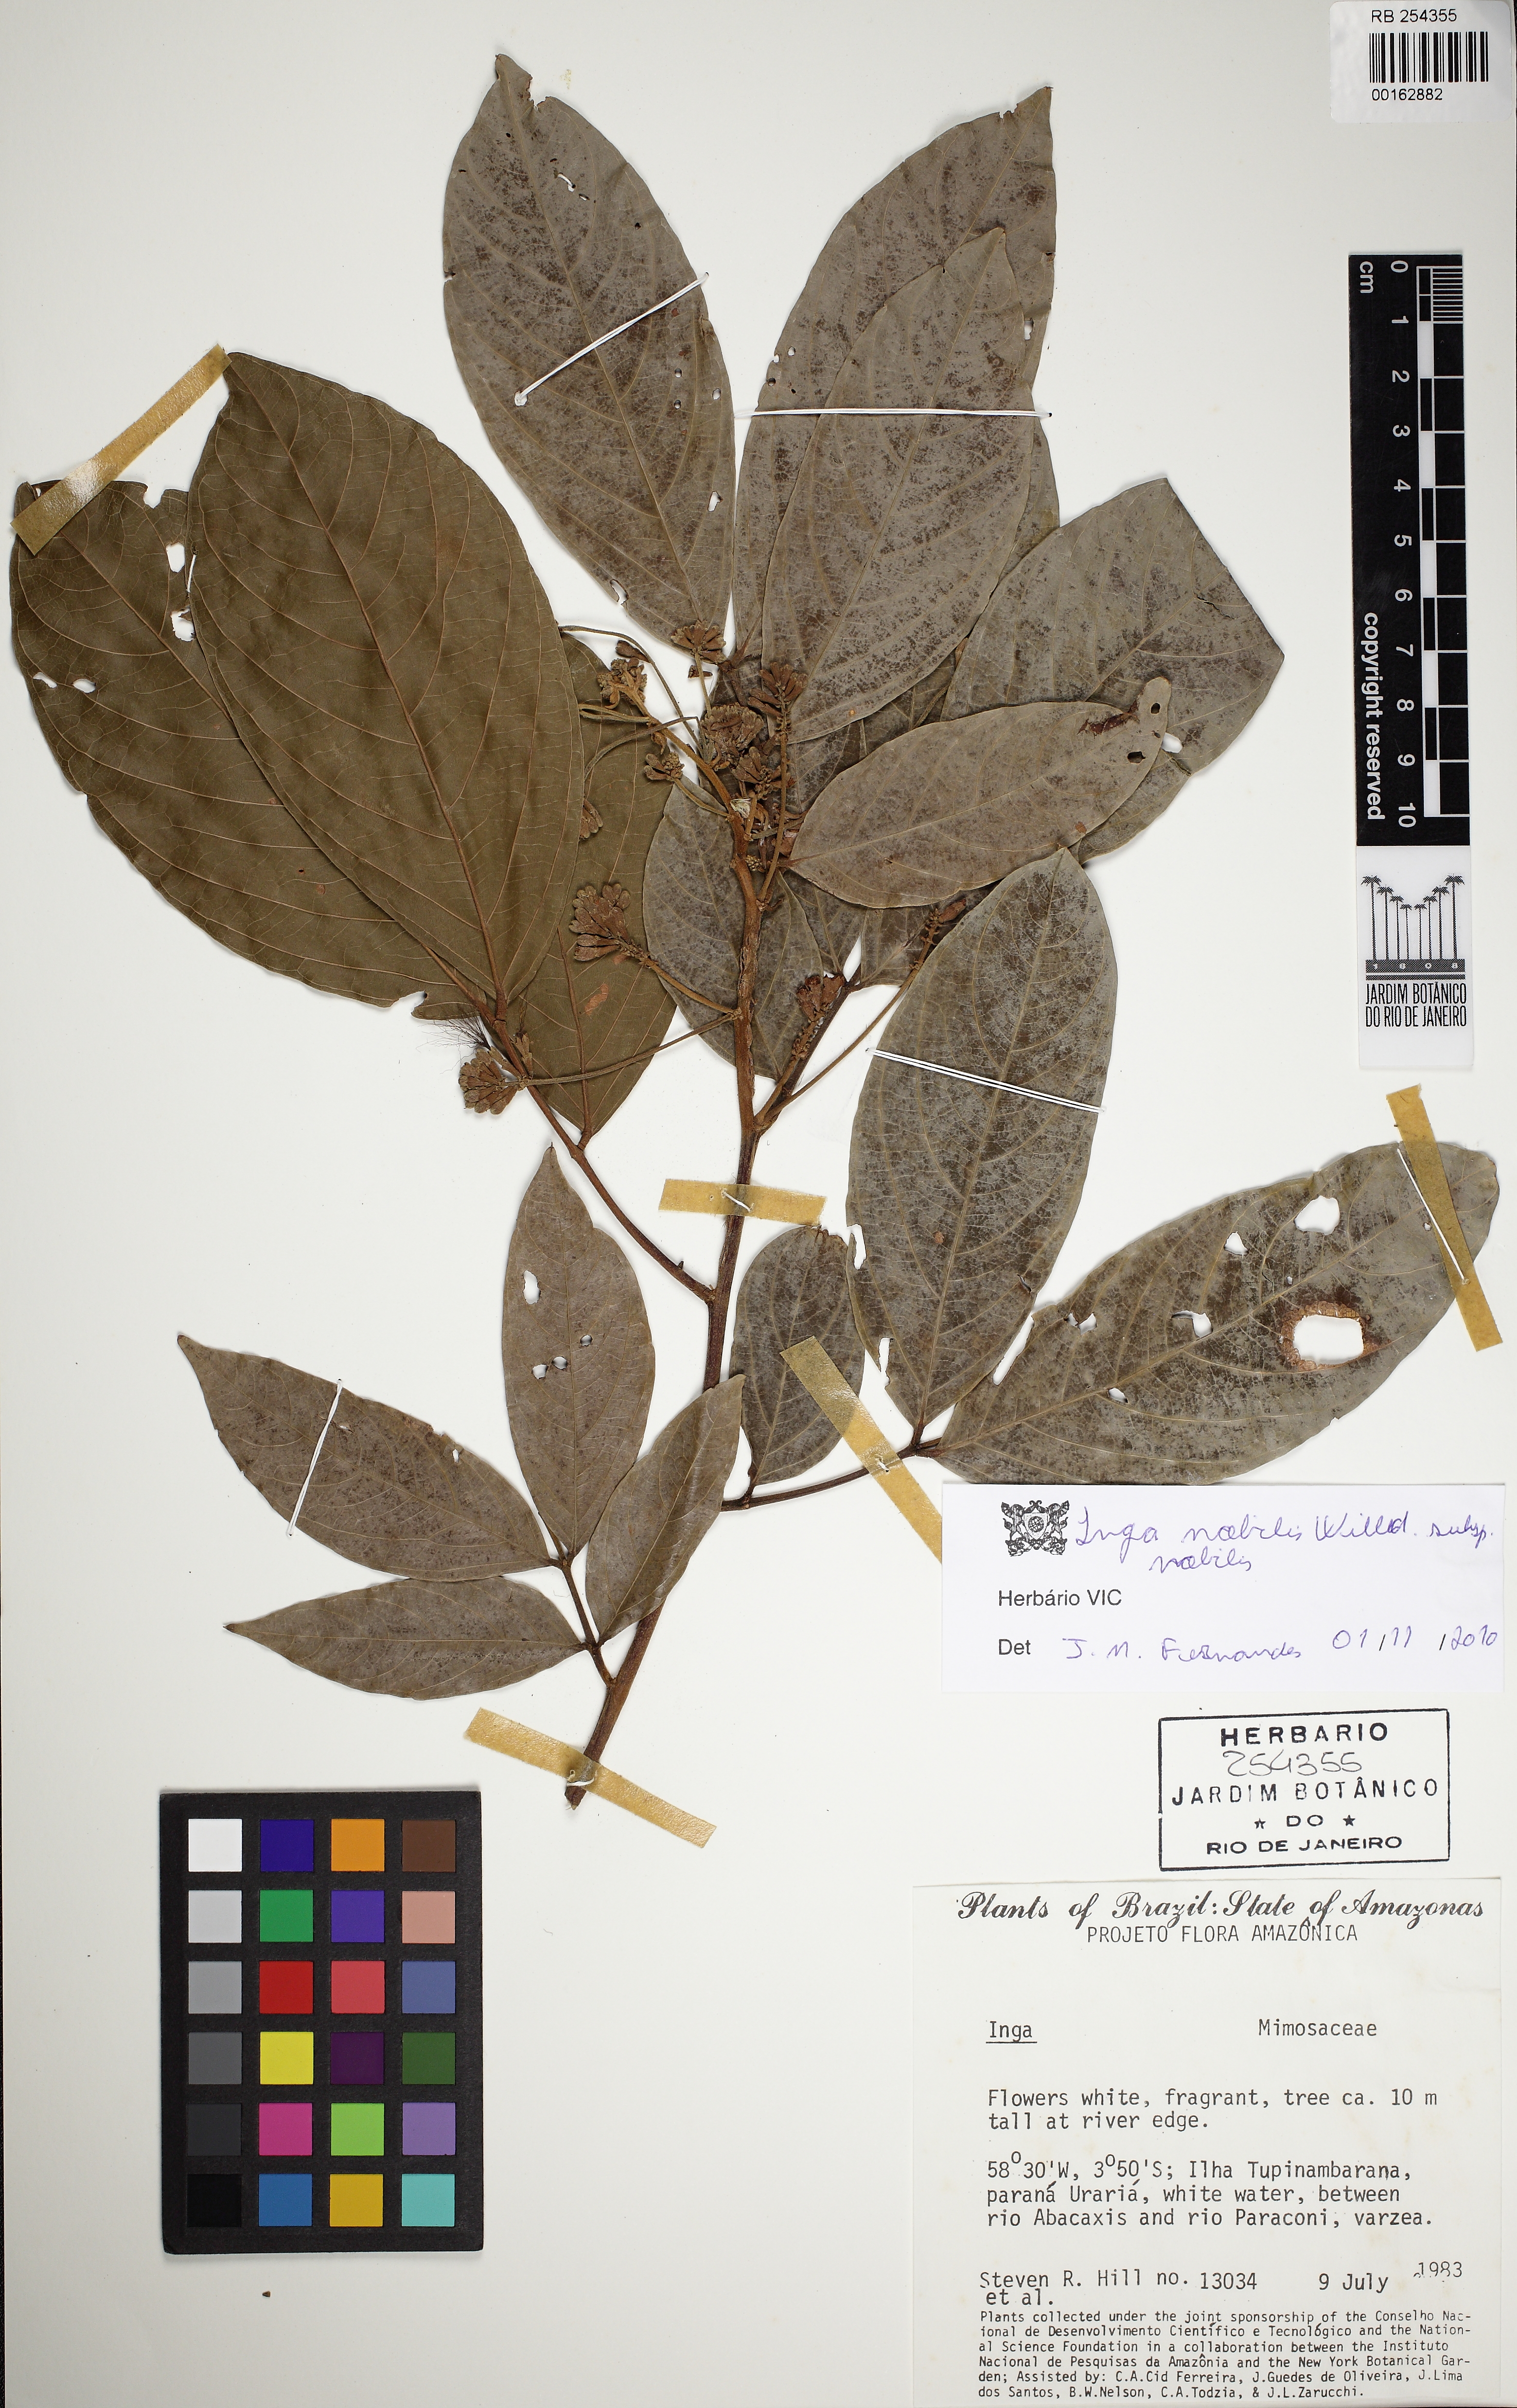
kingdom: Plantae
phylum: Tracheophyta
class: Magnoliopsida
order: Fabales
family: Fabaceae
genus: Inga
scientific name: Inga nobilis
